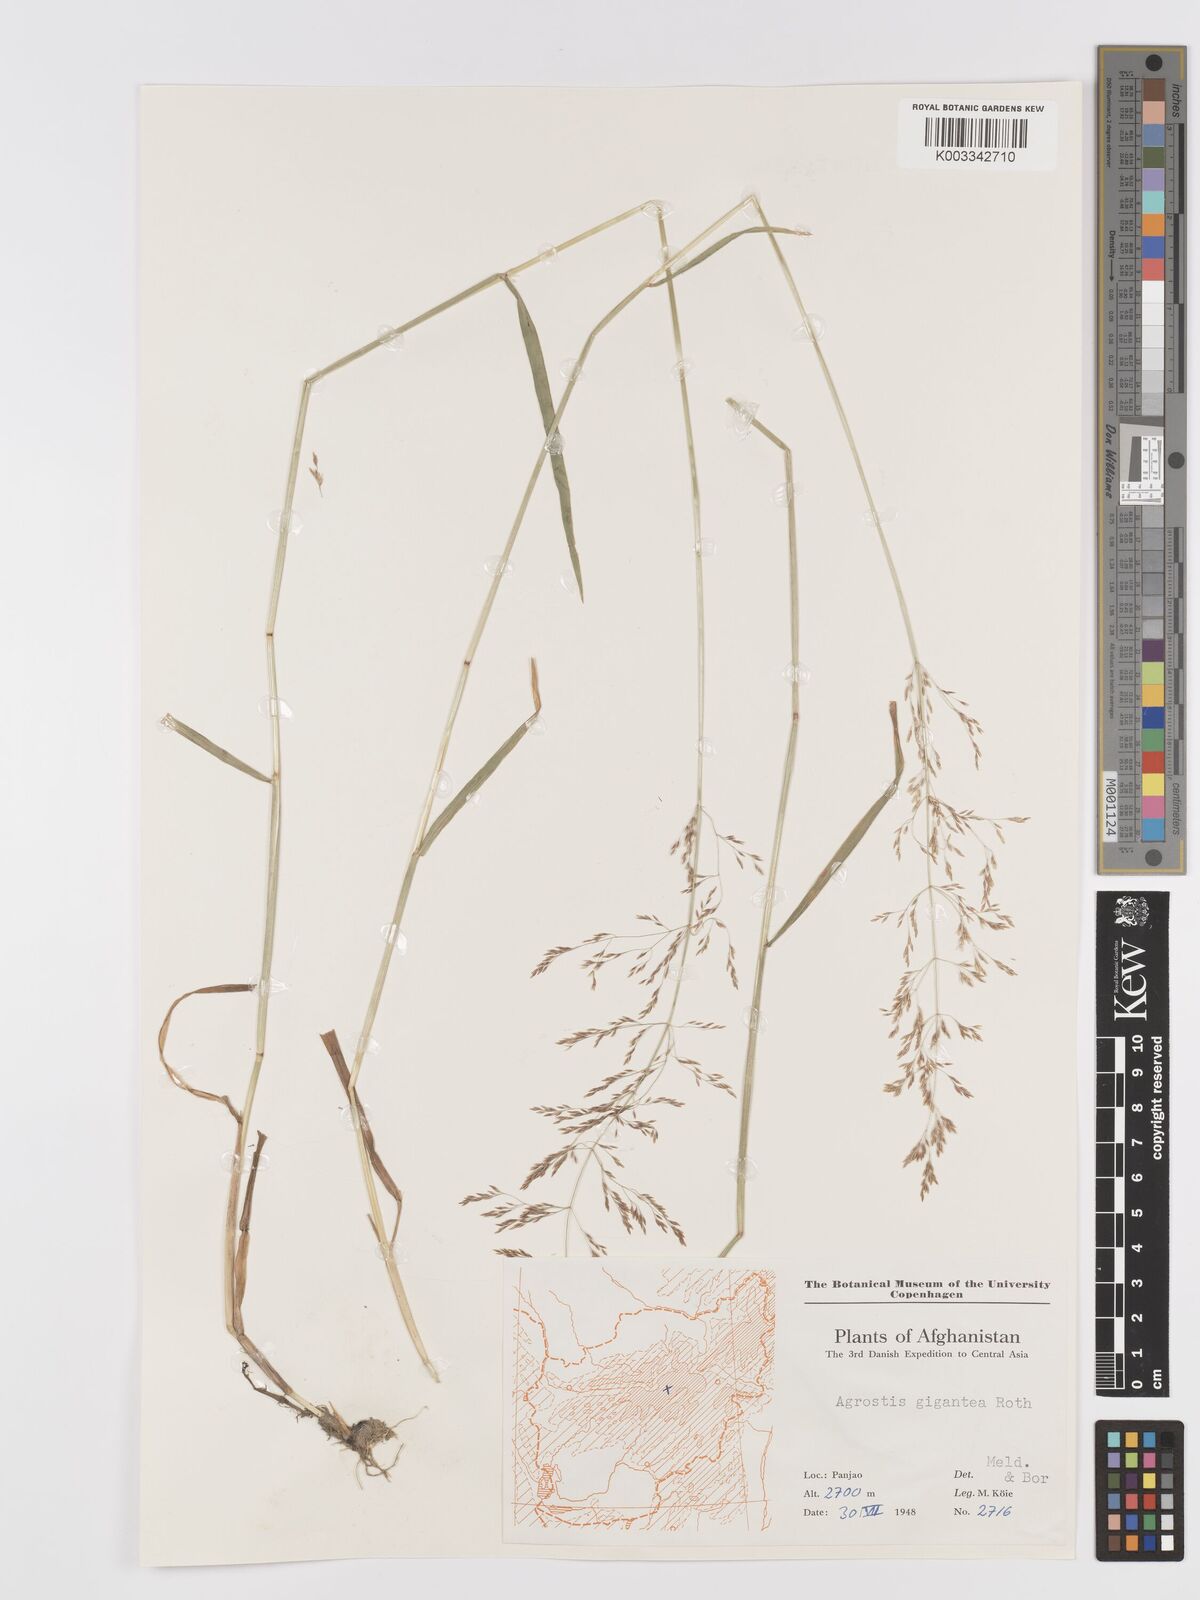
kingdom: Plantae
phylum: Tracheophyta
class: Liliopsida
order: Poales
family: Poaceae
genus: Agrostis
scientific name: Agrostis gigantea
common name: Black bent
